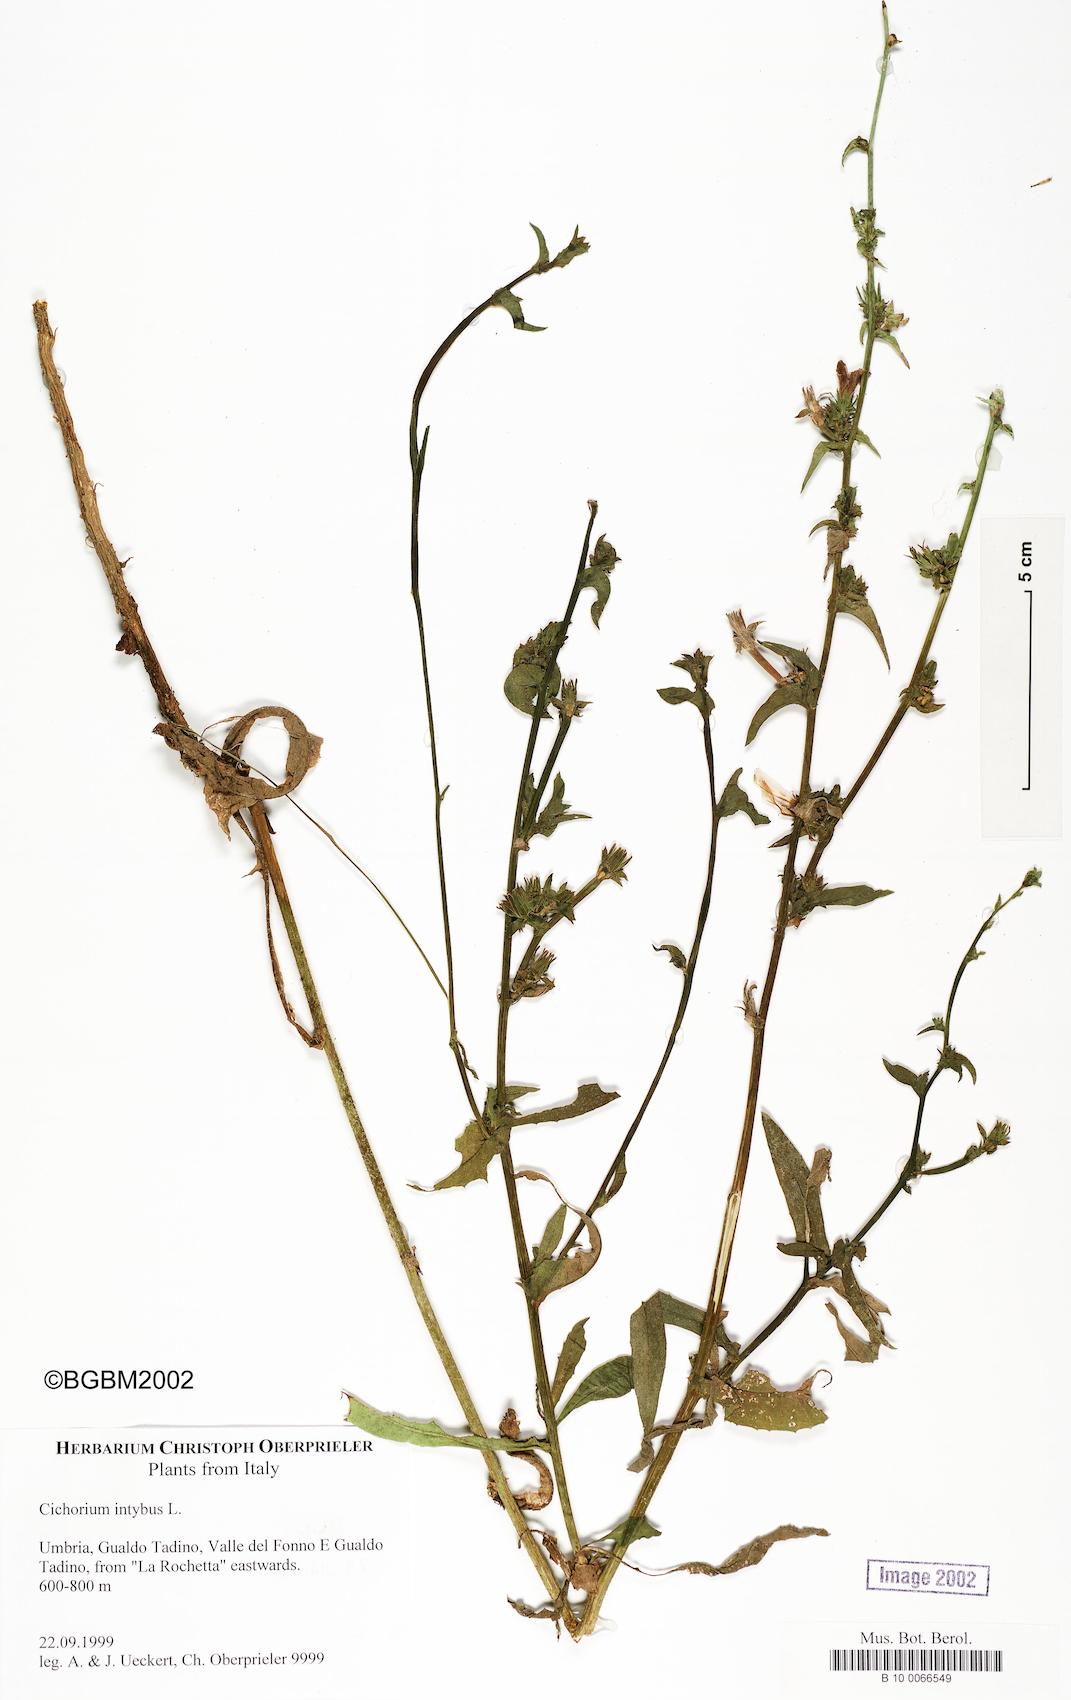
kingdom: Plantae
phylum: Tracheophyta
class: Magnoliopsida
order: Asterales
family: Asteraceae
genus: Cichorium
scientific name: Cichorium intybus
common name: Chicory
